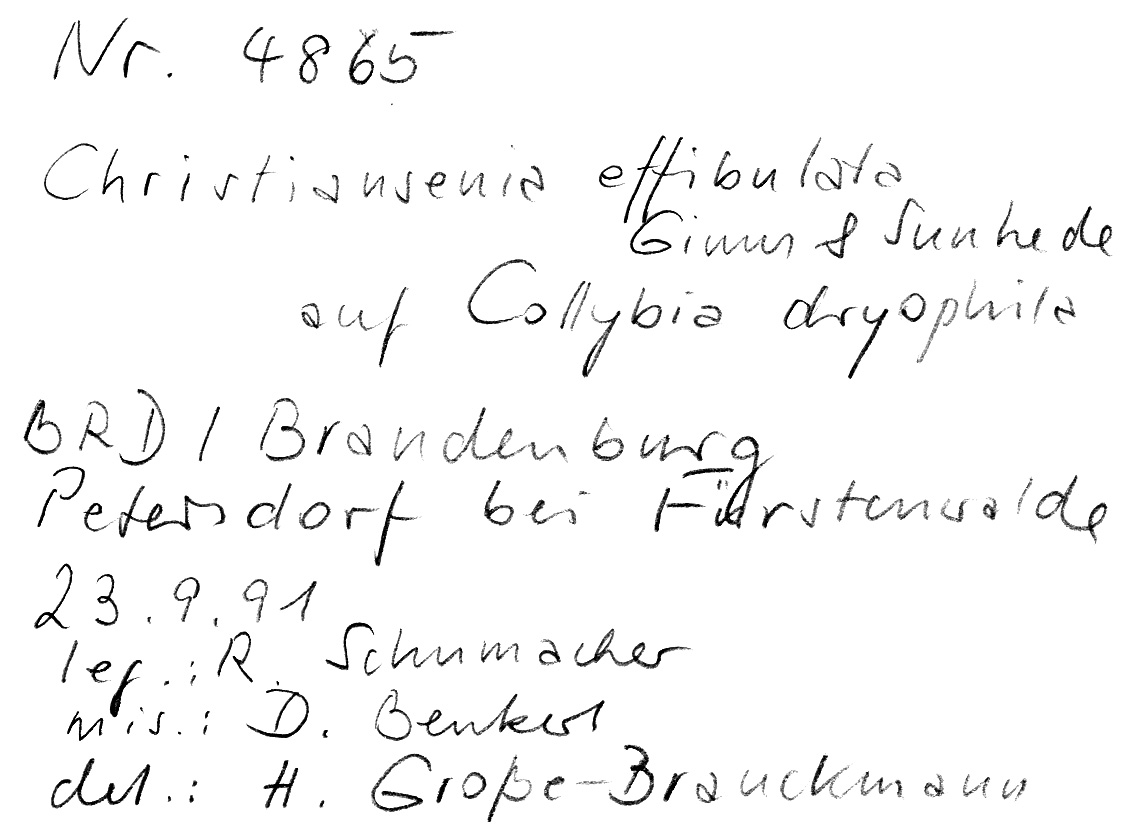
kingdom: Fungi
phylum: Basidiomycota
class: Tremellomycetes
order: Filobasidiales
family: Filobasidiaceae
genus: Syzygospora
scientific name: Syzygospora effibulata
